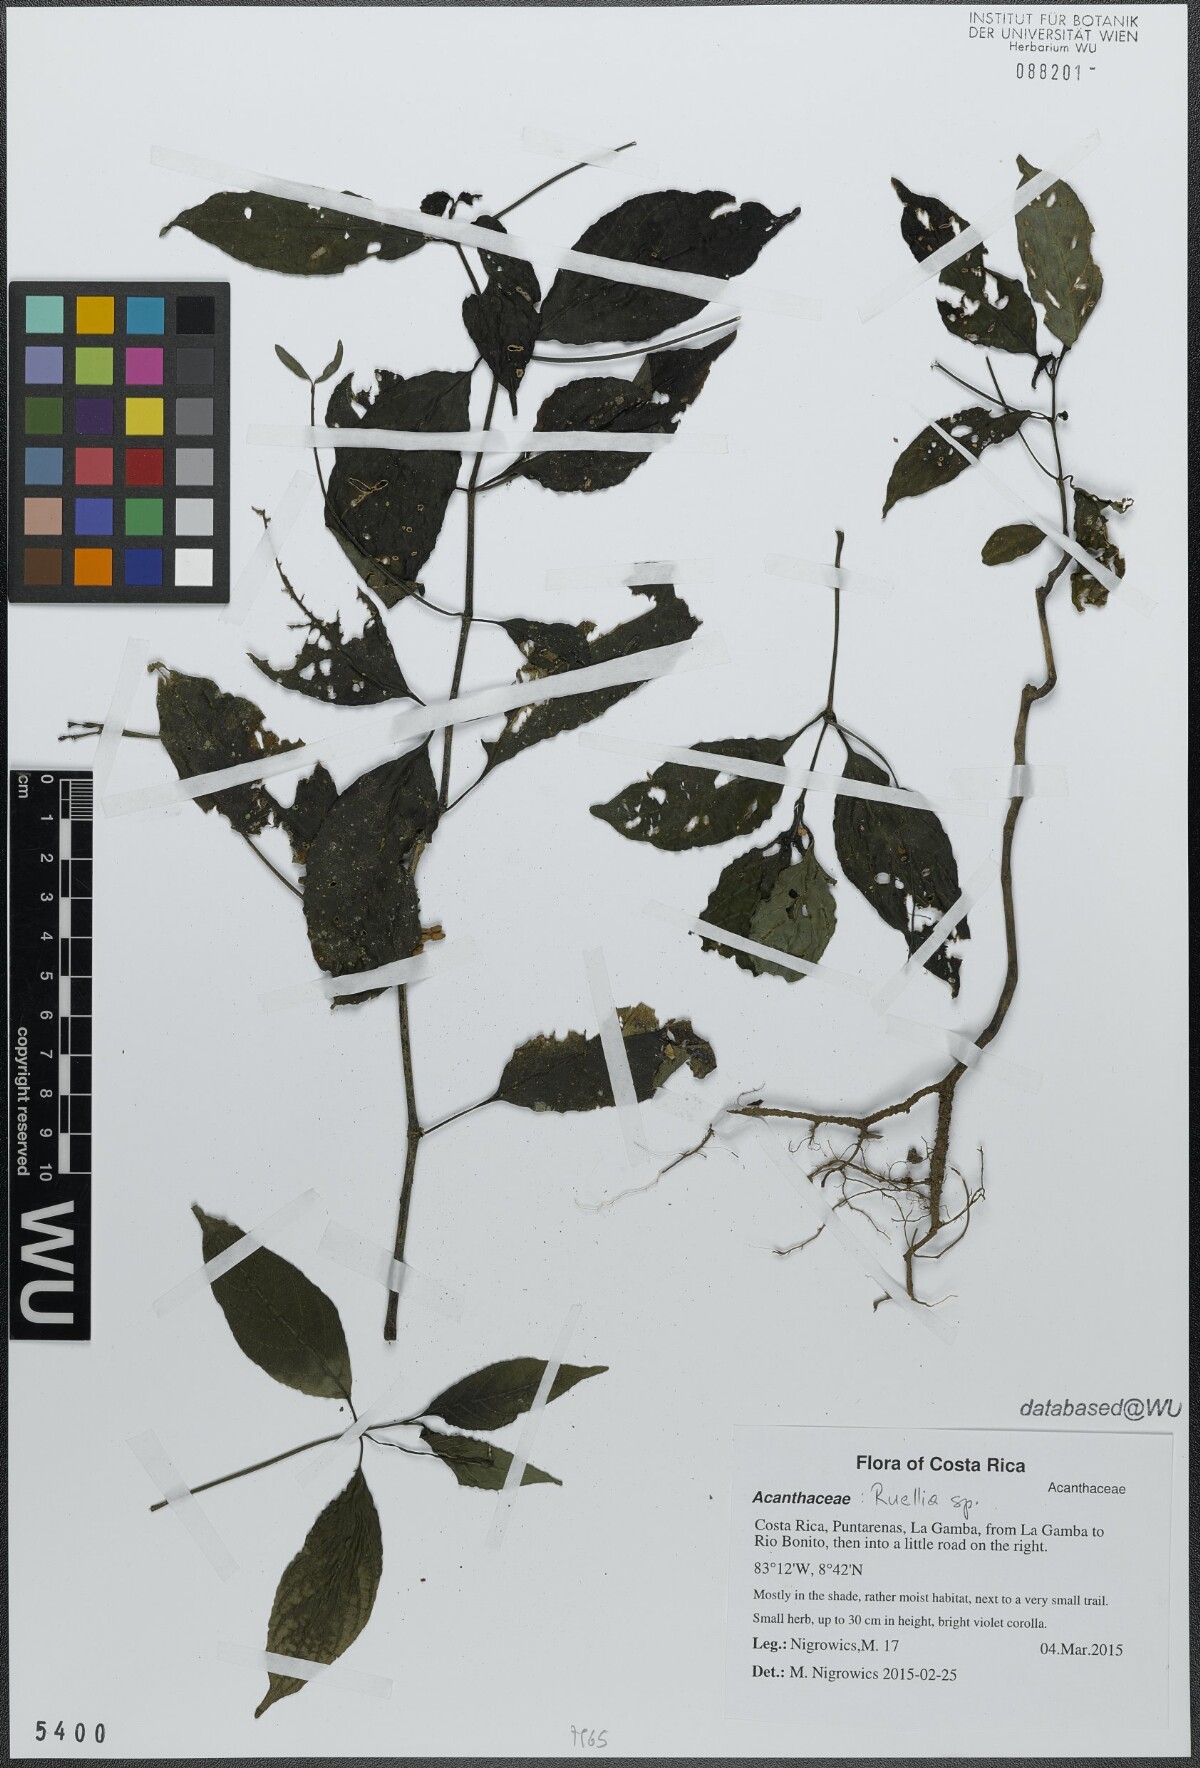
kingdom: Plantae
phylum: Tracheophyta
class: Magnoliopsida
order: Lamiales
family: Acanthaceae
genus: Ruellia
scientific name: Ruellia
